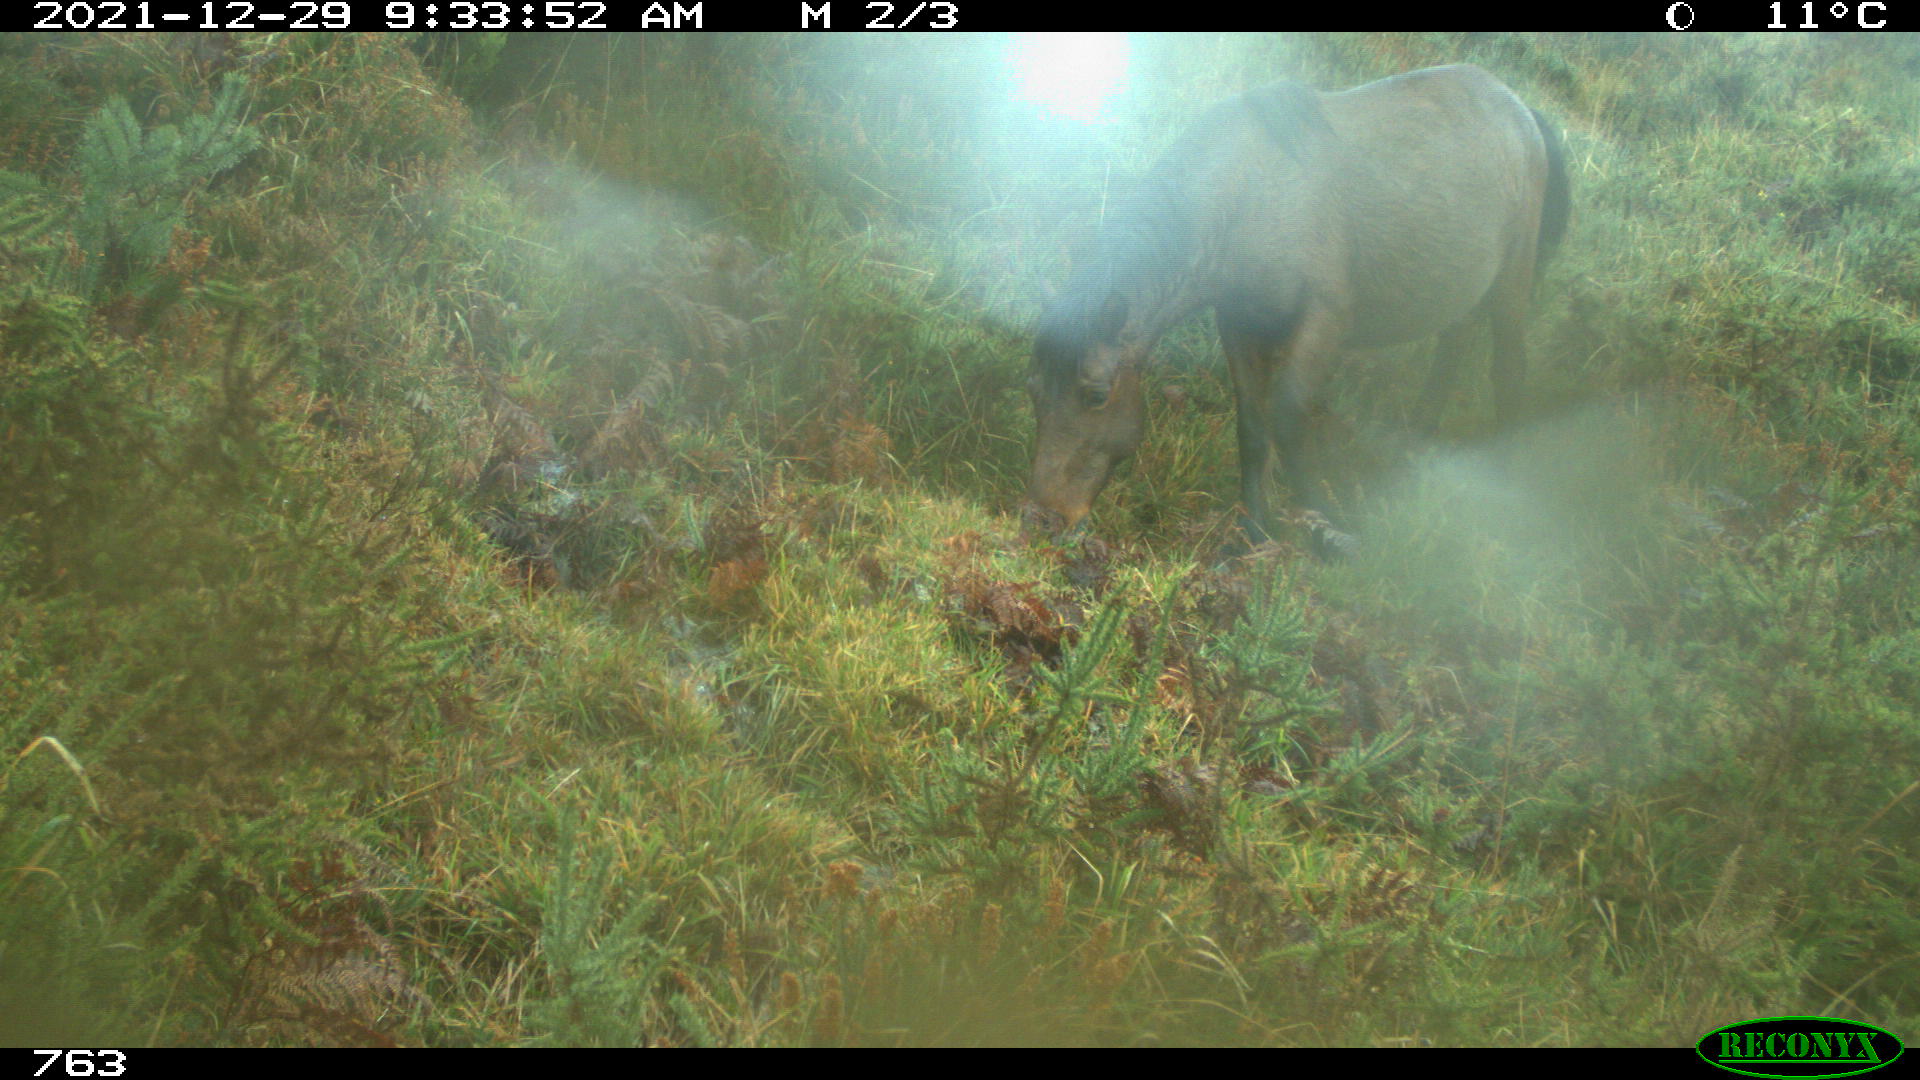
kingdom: Animalia
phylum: Chordata
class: Mammalia
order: Perissodactyla
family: Equidae
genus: Equus
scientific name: Equus caballus
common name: Horse
